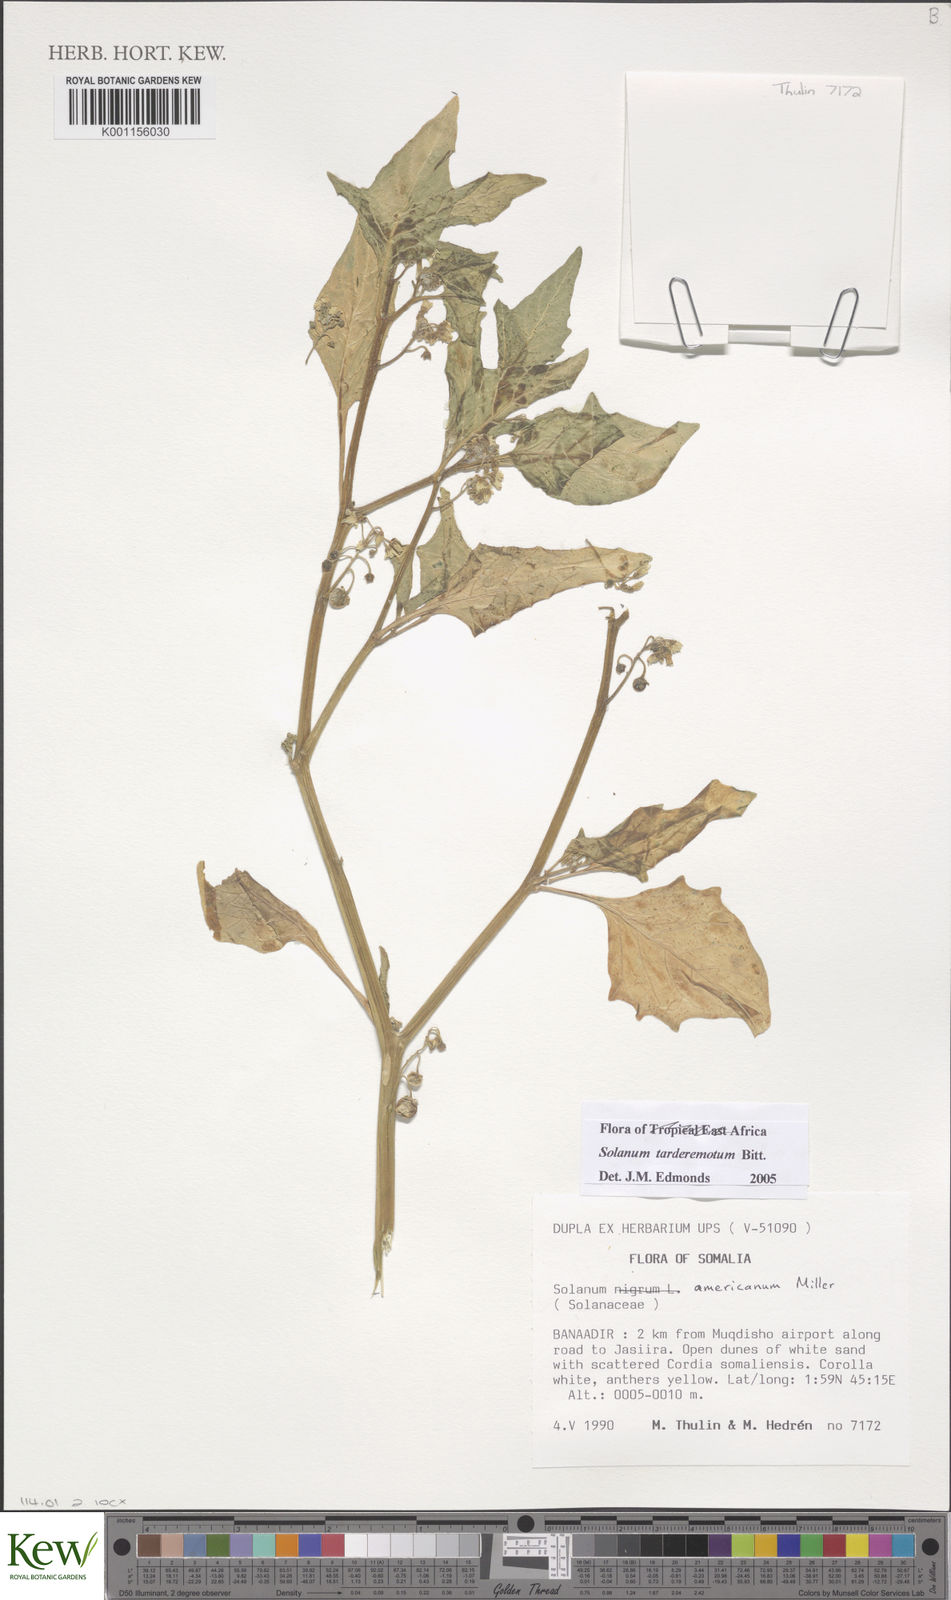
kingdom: Plantae
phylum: Tracheophyta
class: Magnoliopsida
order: Solanales
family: Solanaceae
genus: Solanum
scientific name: Solanum tarderemotum
